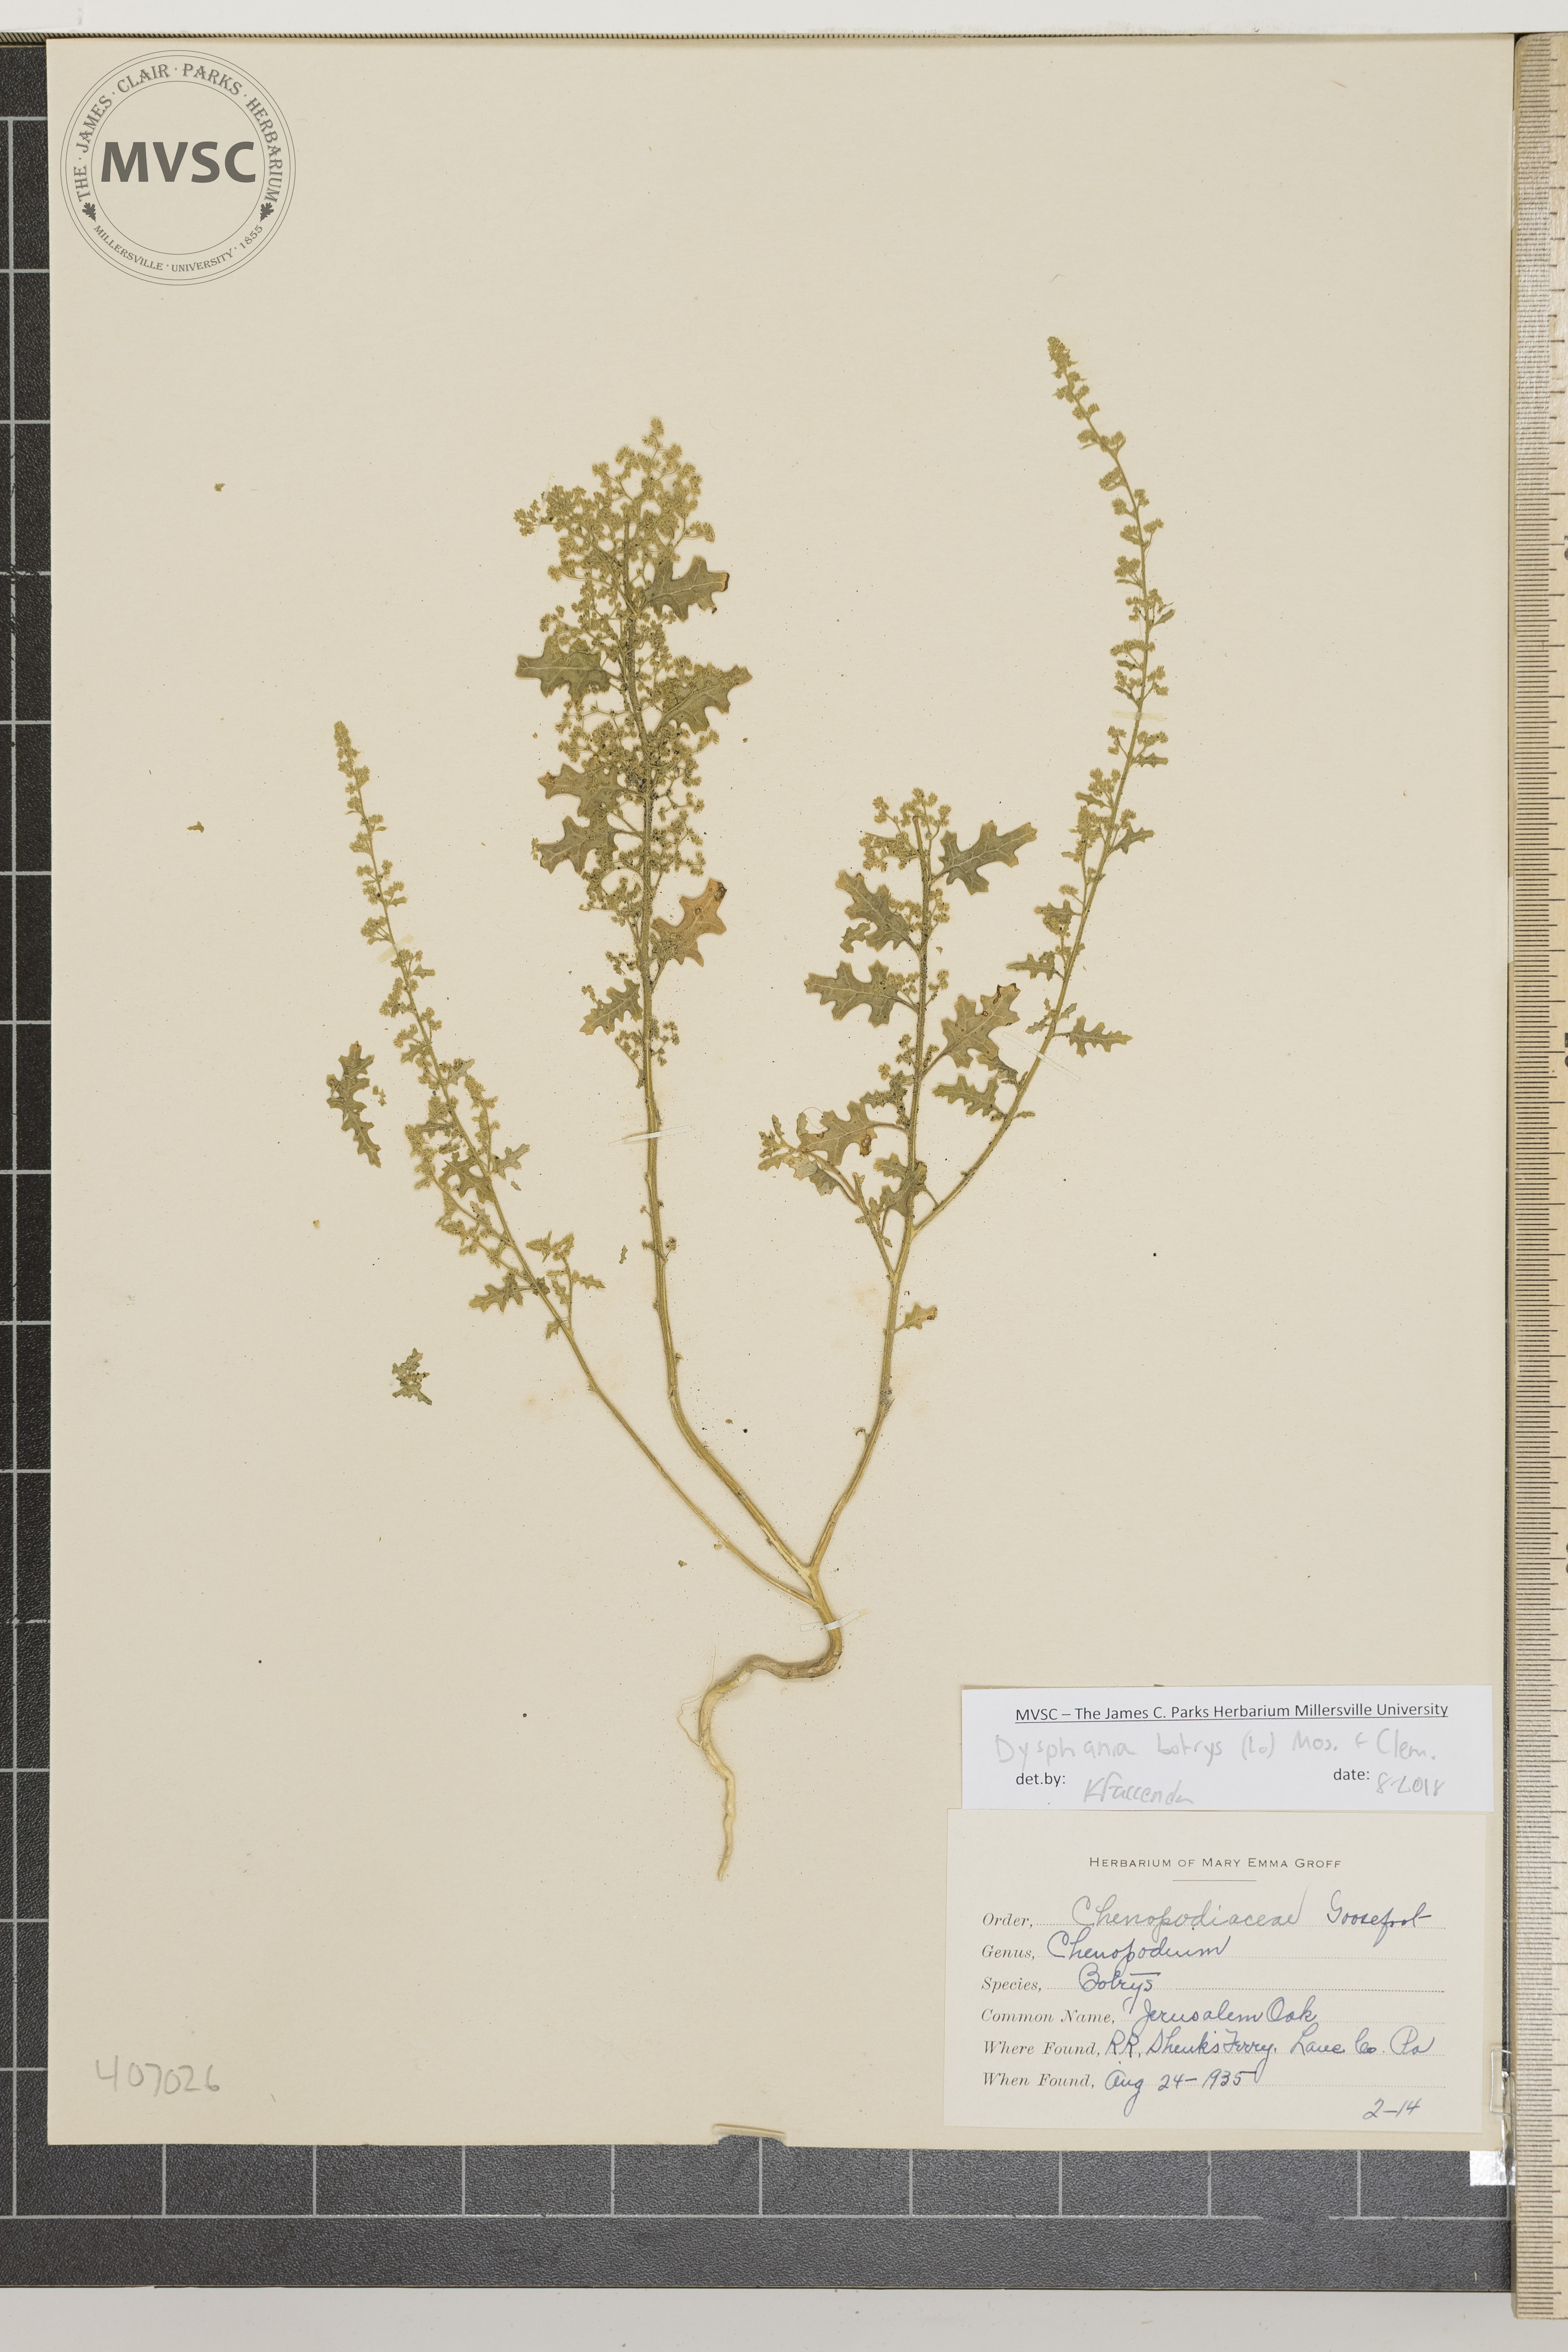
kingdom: Plantae
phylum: Tracheophyta
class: Magnoliopsida
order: Caryophyllales
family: Amaranthaceae
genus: Dysphania
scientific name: Dysphania botrys
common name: Jerusalem Oak
